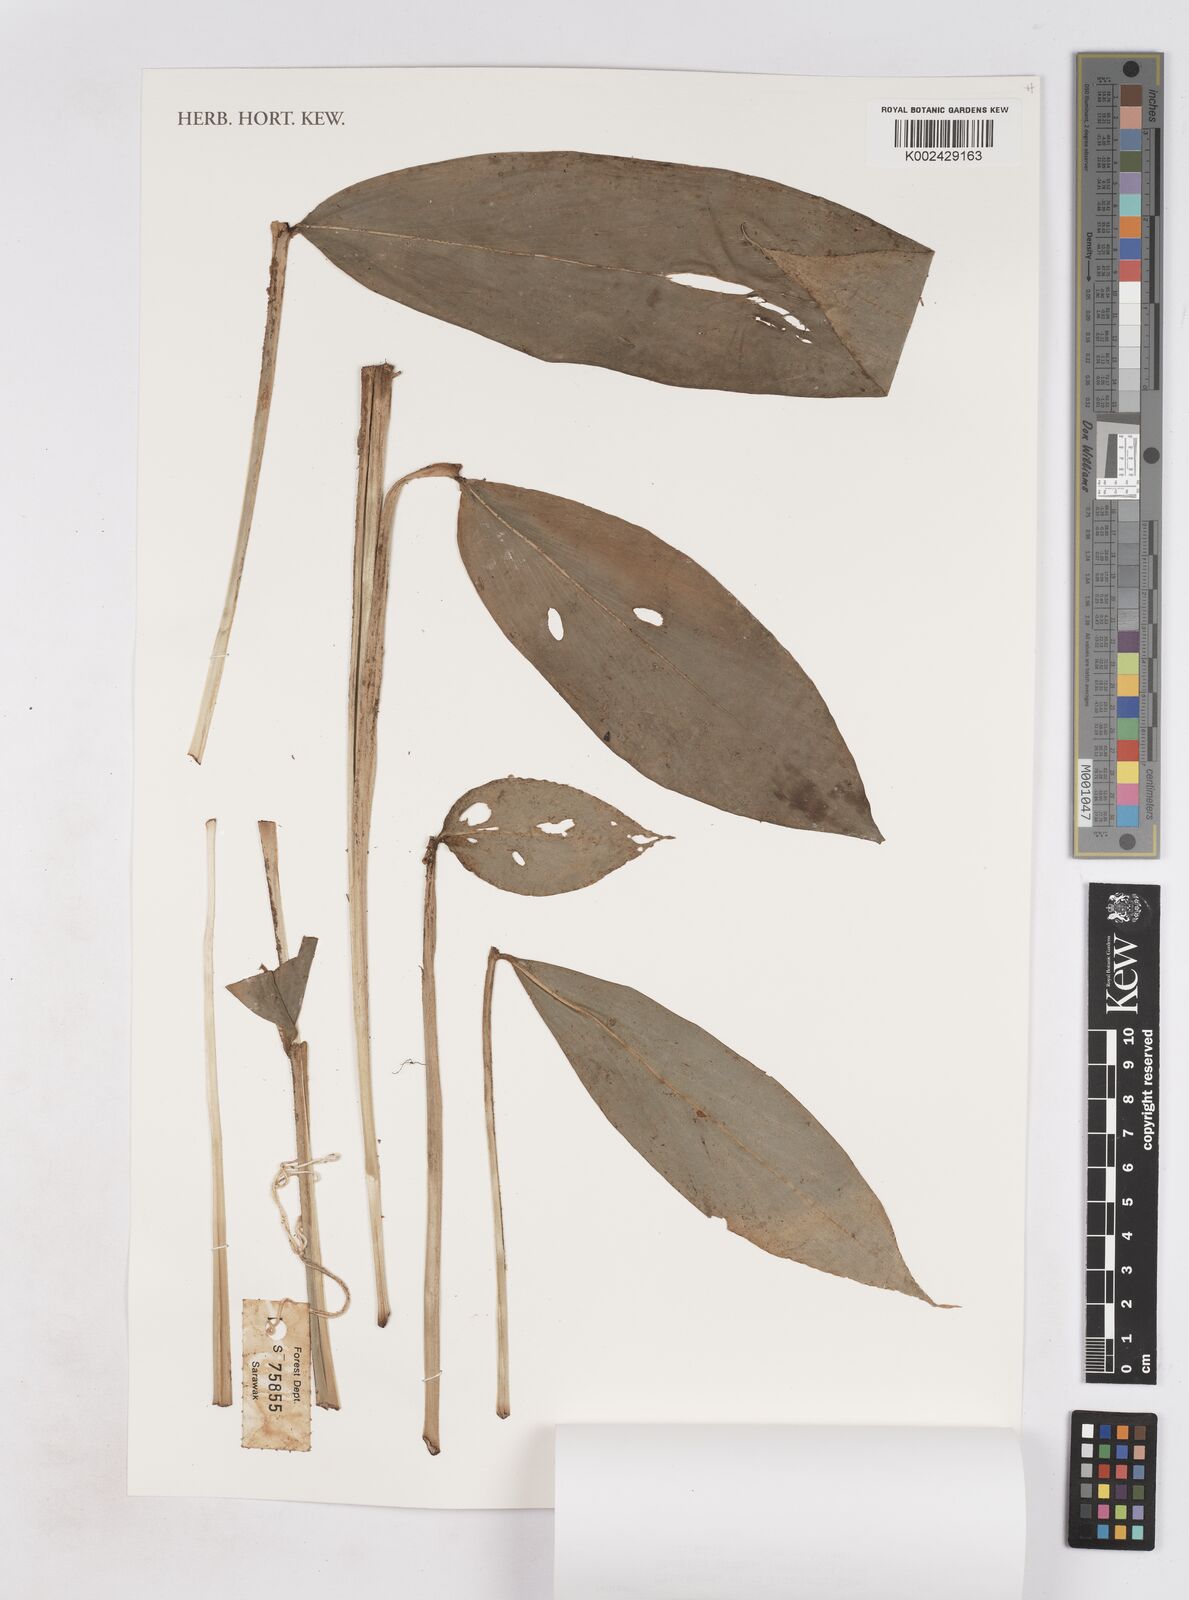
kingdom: Plantae
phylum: Tracheophyta
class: Liliopsida
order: Zingiberales
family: Zingiberaceae
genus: Zingiber
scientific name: Zingiber
